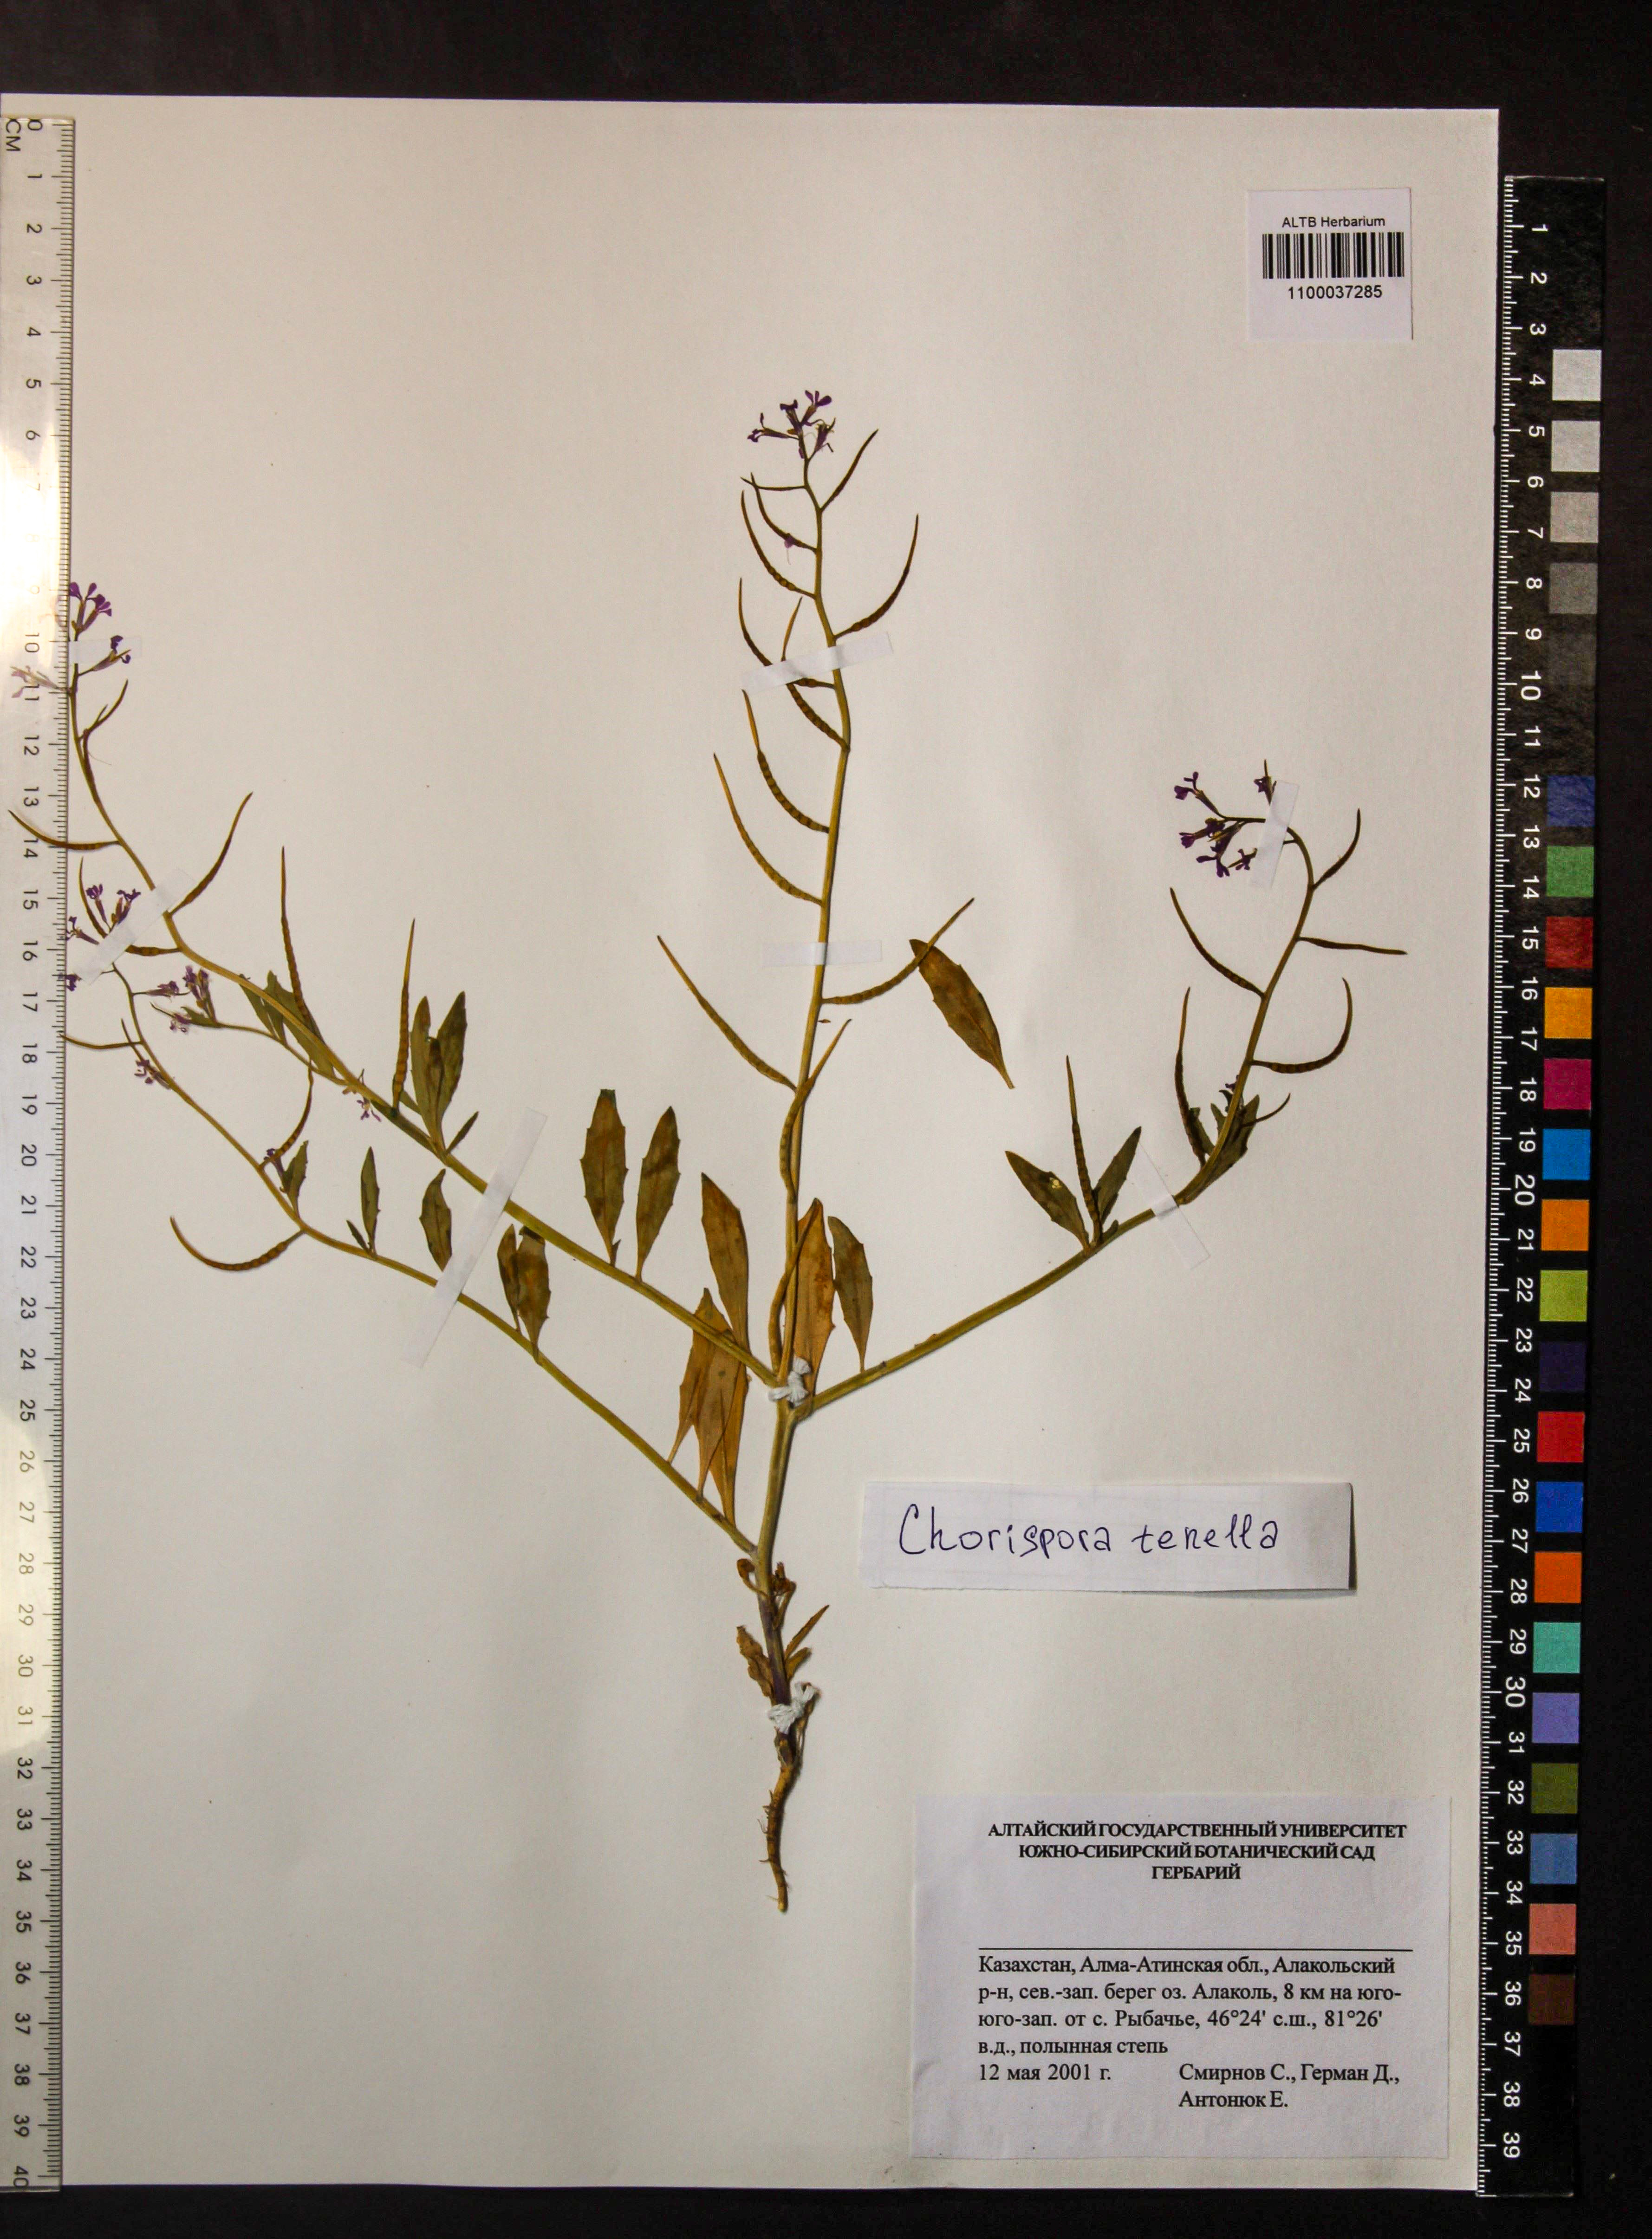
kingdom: Plantae
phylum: Tracheophyta
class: Magnoliopsida
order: Brassicales
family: Brassicaceae
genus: Chorispora
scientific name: Chorispora tenella
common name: Crossflower
